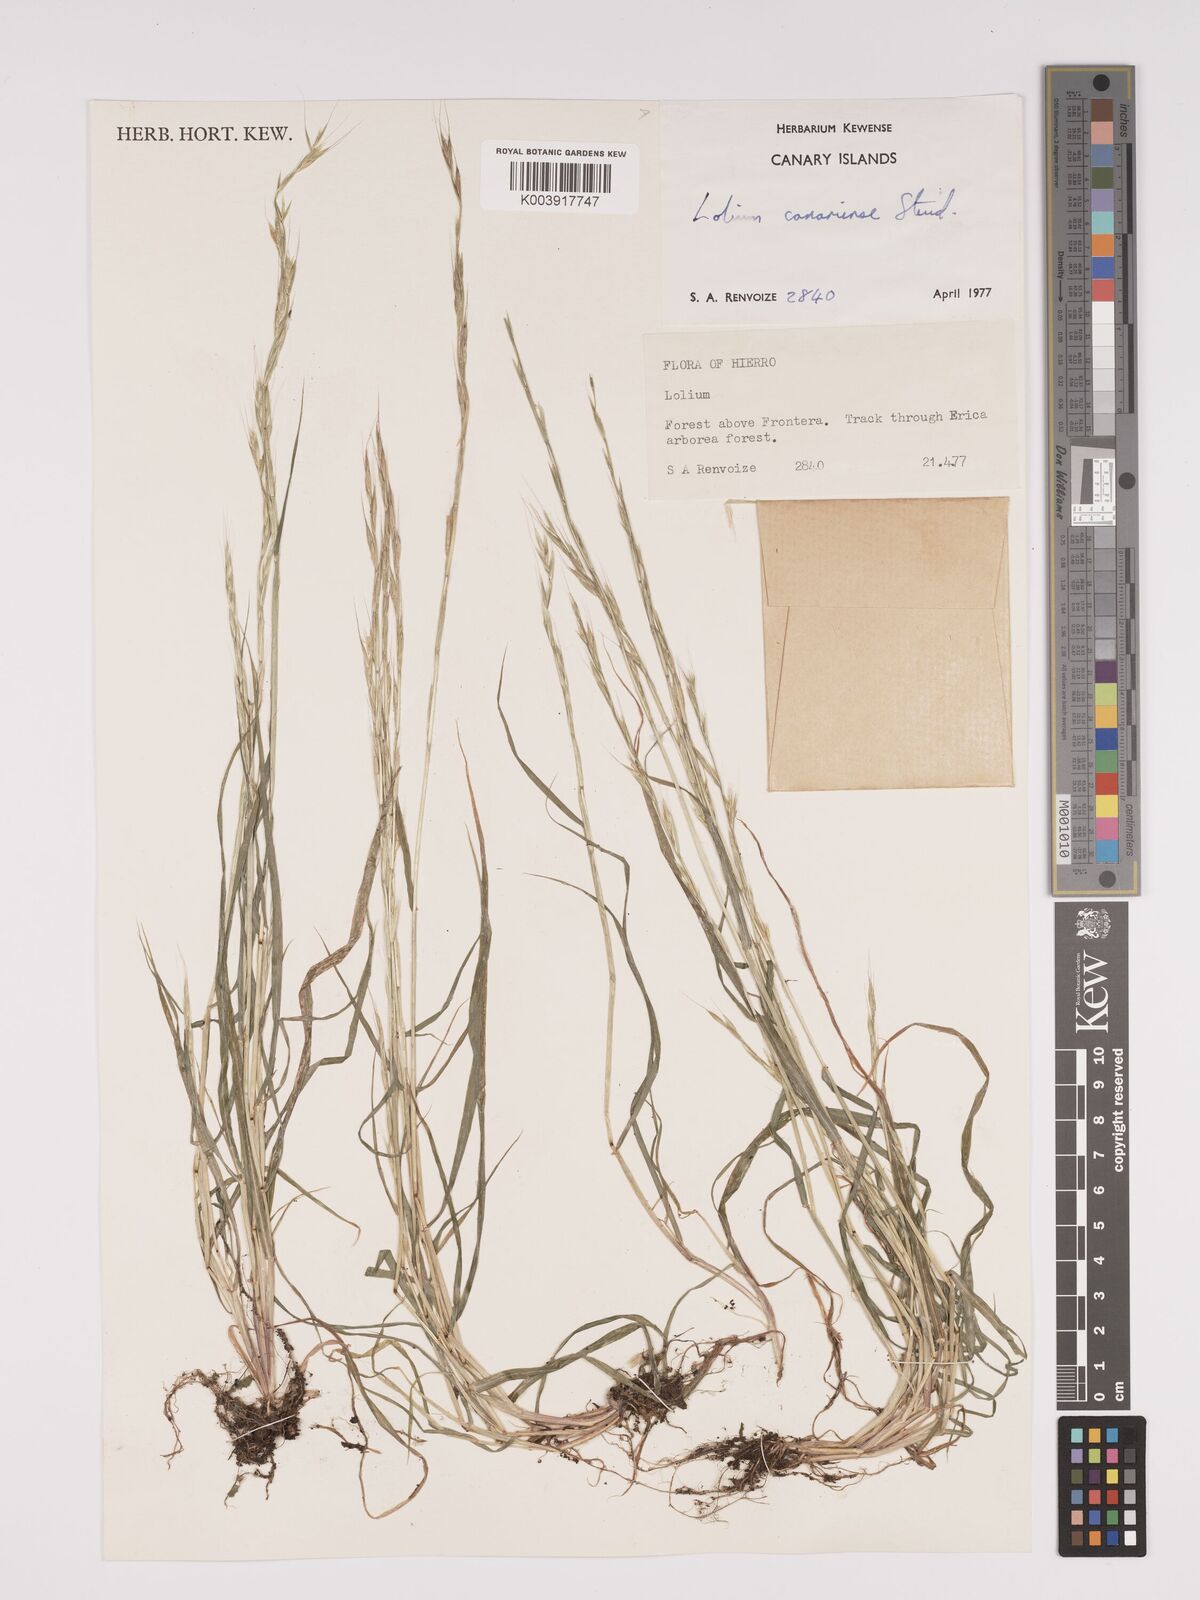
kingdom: Plantae
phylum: Tracheophyta
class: Liliopsida
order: Poales
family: Poaceae
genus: Lolium
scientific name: Lolium canariense
